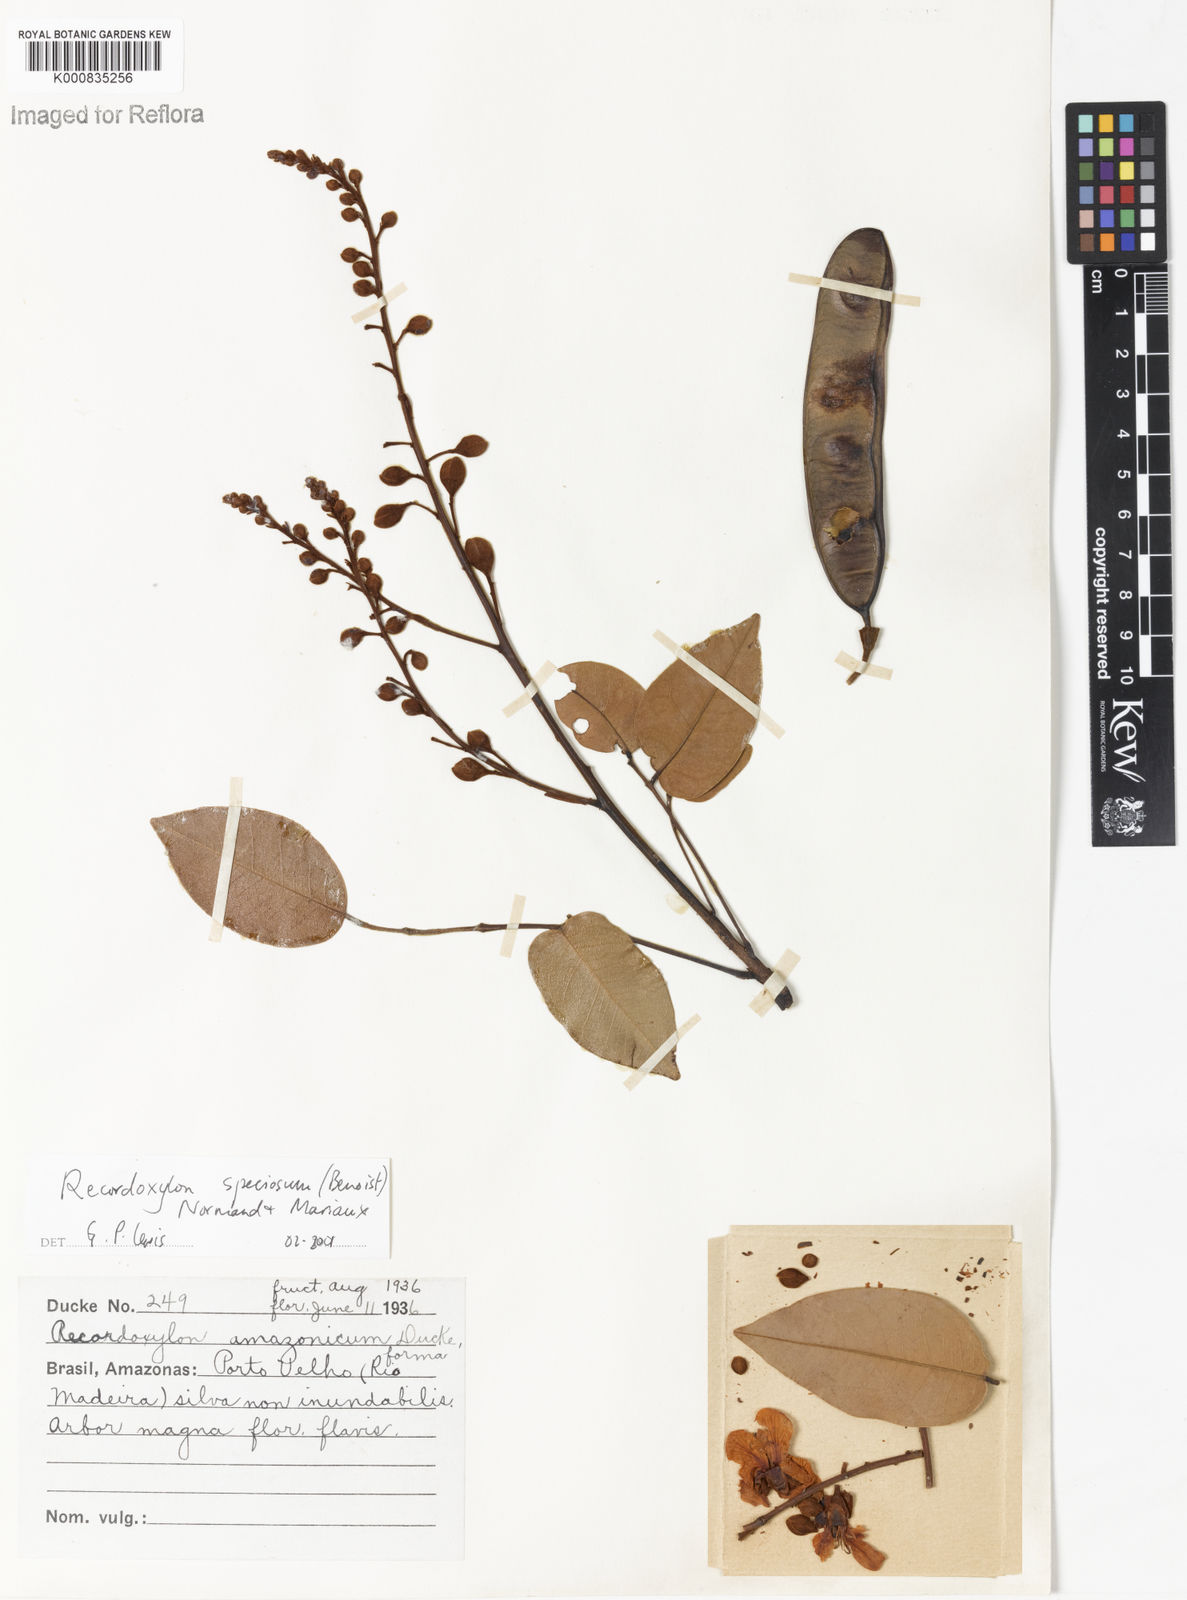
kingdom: Plantae
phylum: Tracheophyta
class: Magnoliopsida
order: Fabales
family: Fabaceae
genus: Recordoxylon
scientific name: Recordoxylon speciosum
